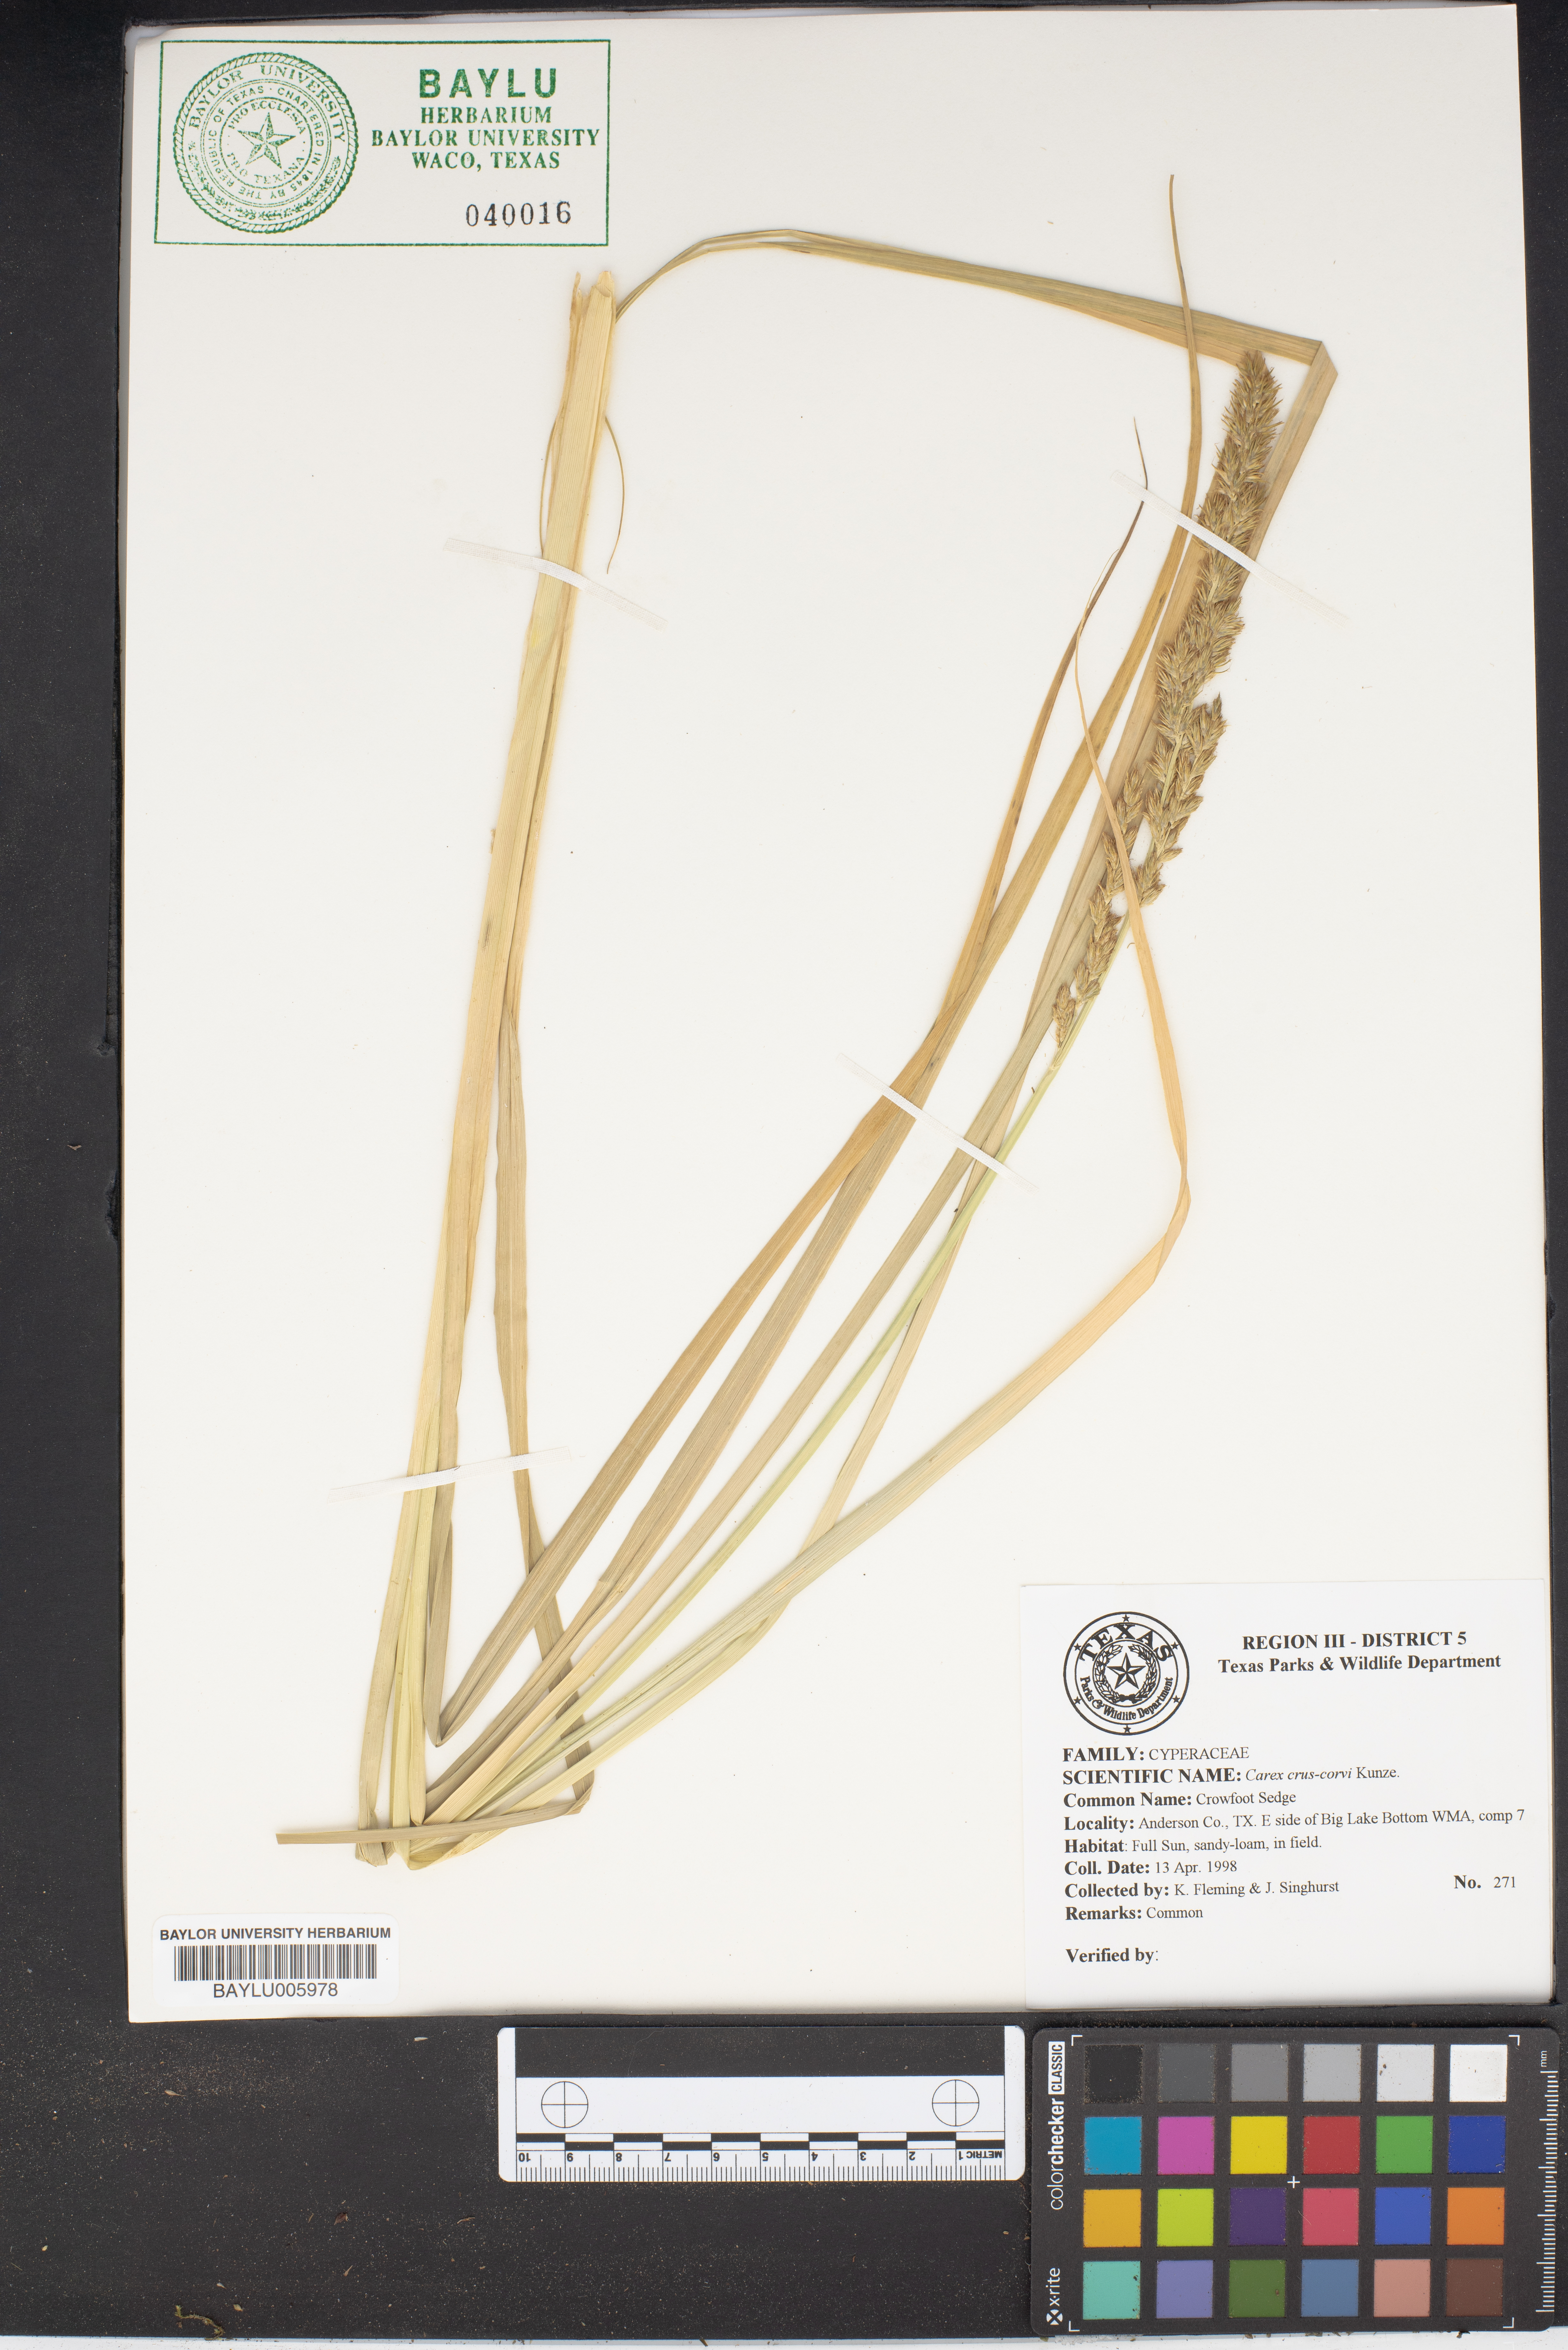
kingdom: Plantae
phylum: Tracheophyta
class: Liliopsida
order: Poales
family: Cyperaceae
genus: Carex
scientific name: Carex crus-corvi
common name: Crow-spur sedge
